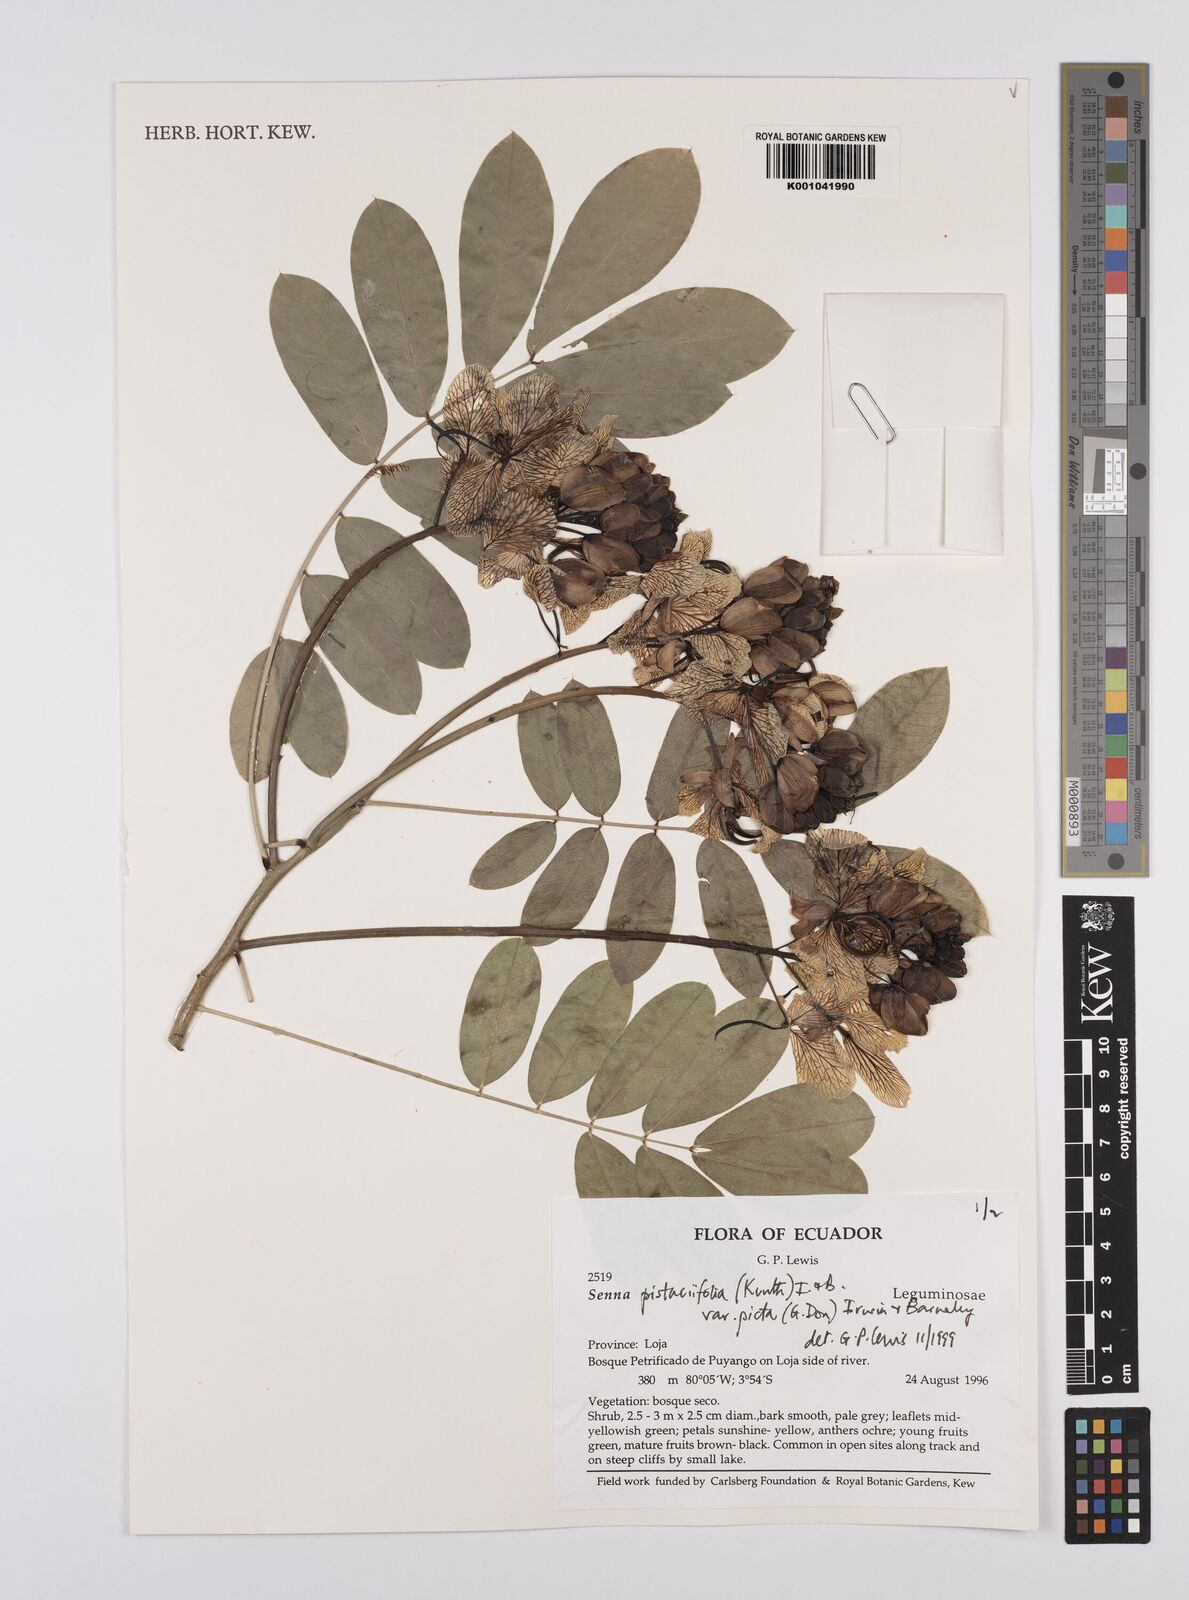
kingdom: Plantae
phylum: Tracheophyta
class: Magnoliopsida
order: Fabales
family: Fabaceae
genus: Senna
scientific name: Senna pistaciifolia
